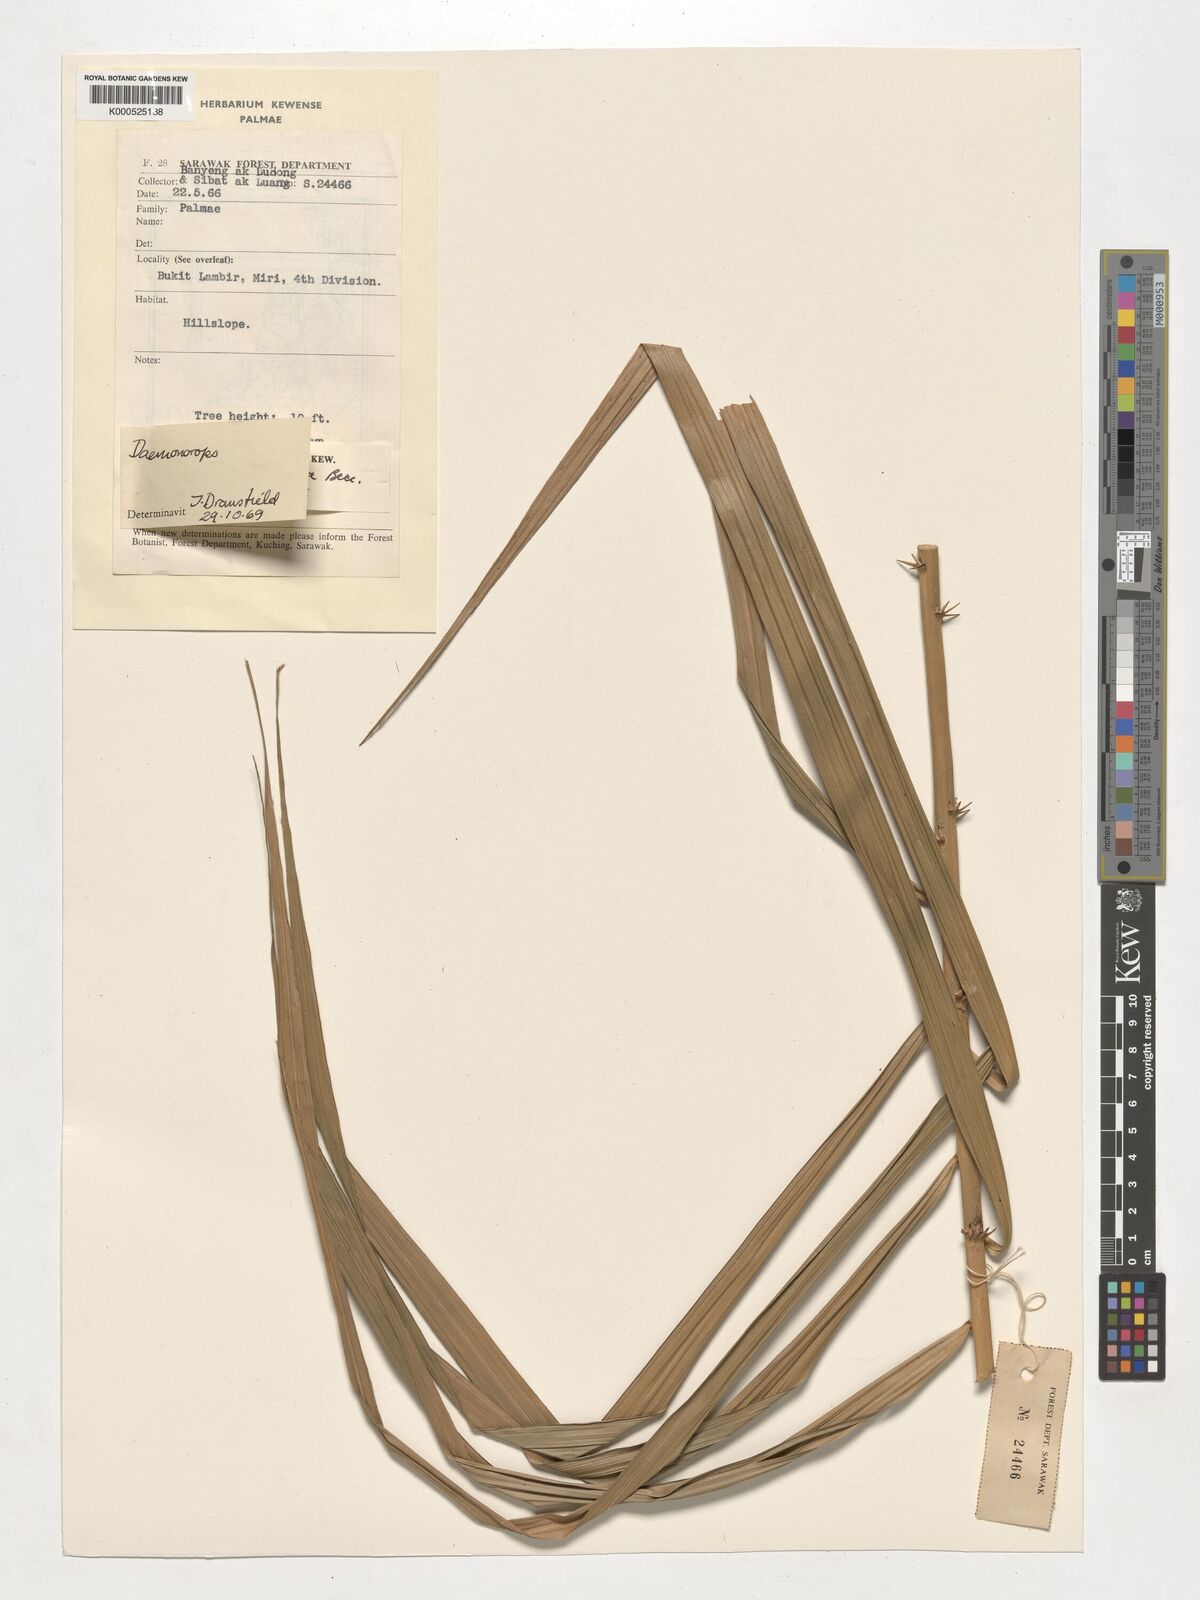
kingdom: Plantae
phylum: Tracheophyta
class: Liliopsida
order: Arecales
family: Arecaceae
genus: Calamus
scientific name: Calamus geniculatus
